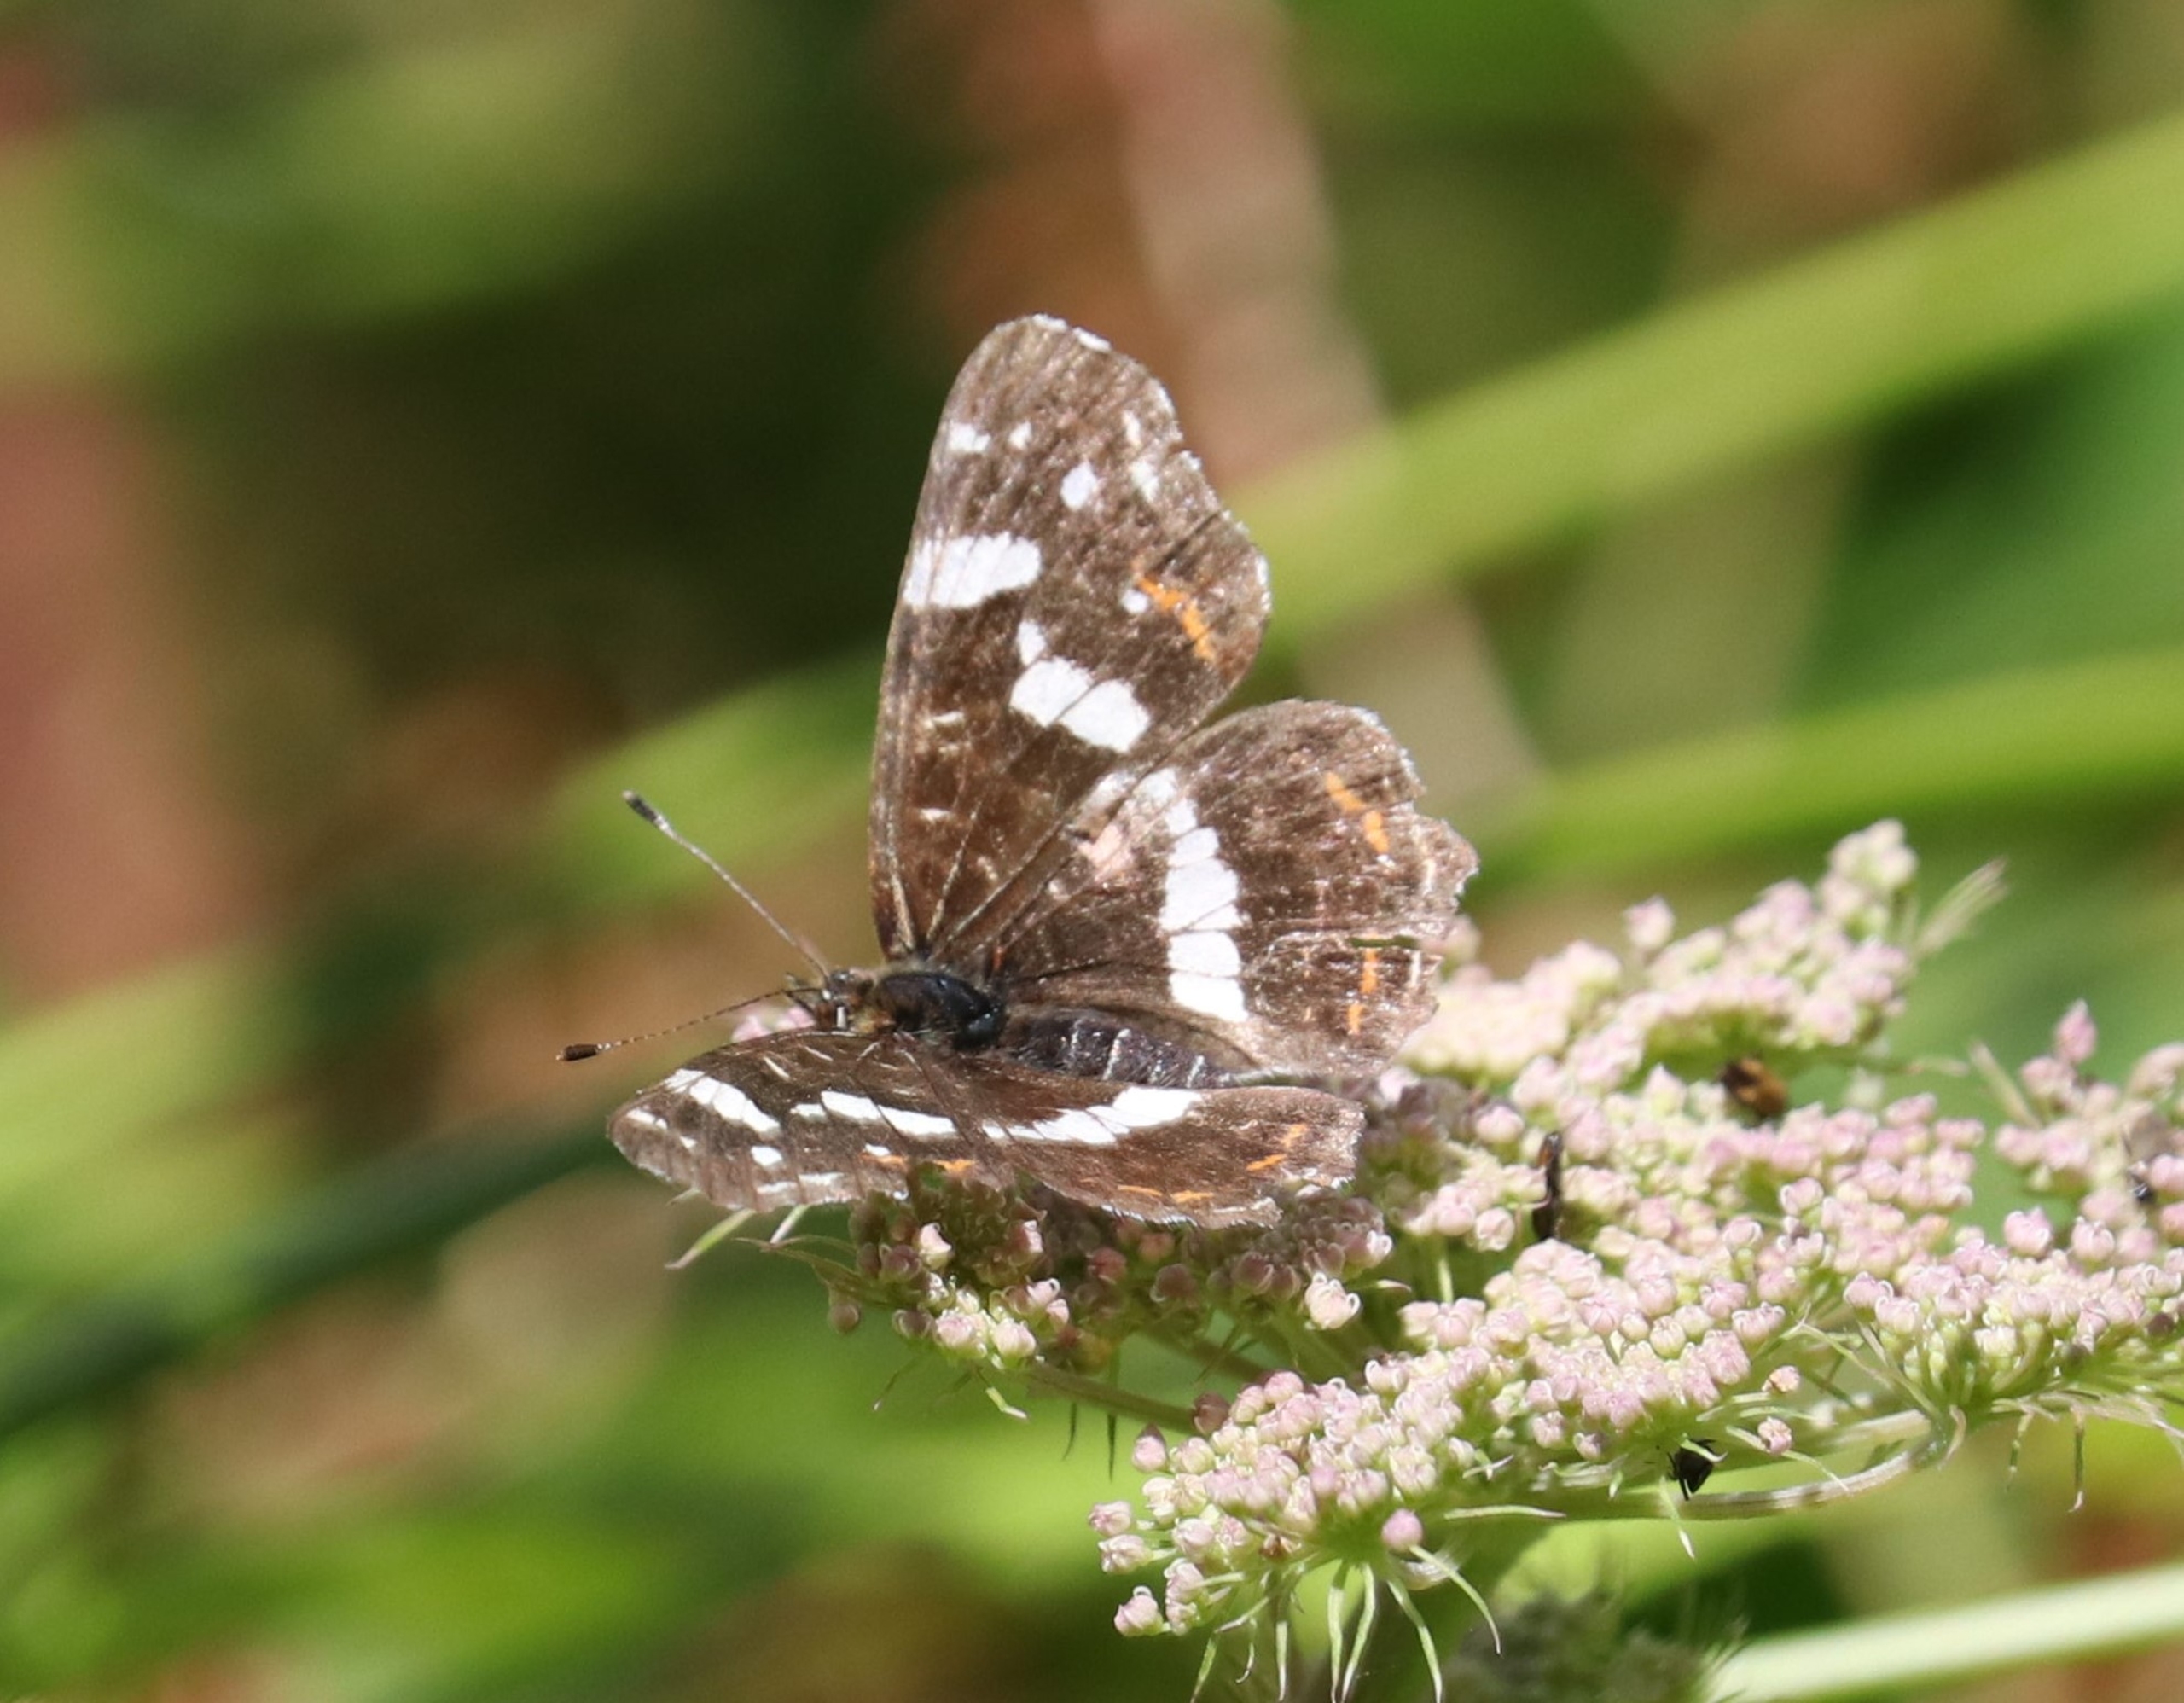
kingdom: Animalia
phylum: Arthropoda
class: Insecta
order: Lepidoptera
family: Nymphalidae
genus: Araschnia
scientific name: Araschnia levana
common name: Nældesommerfugl
